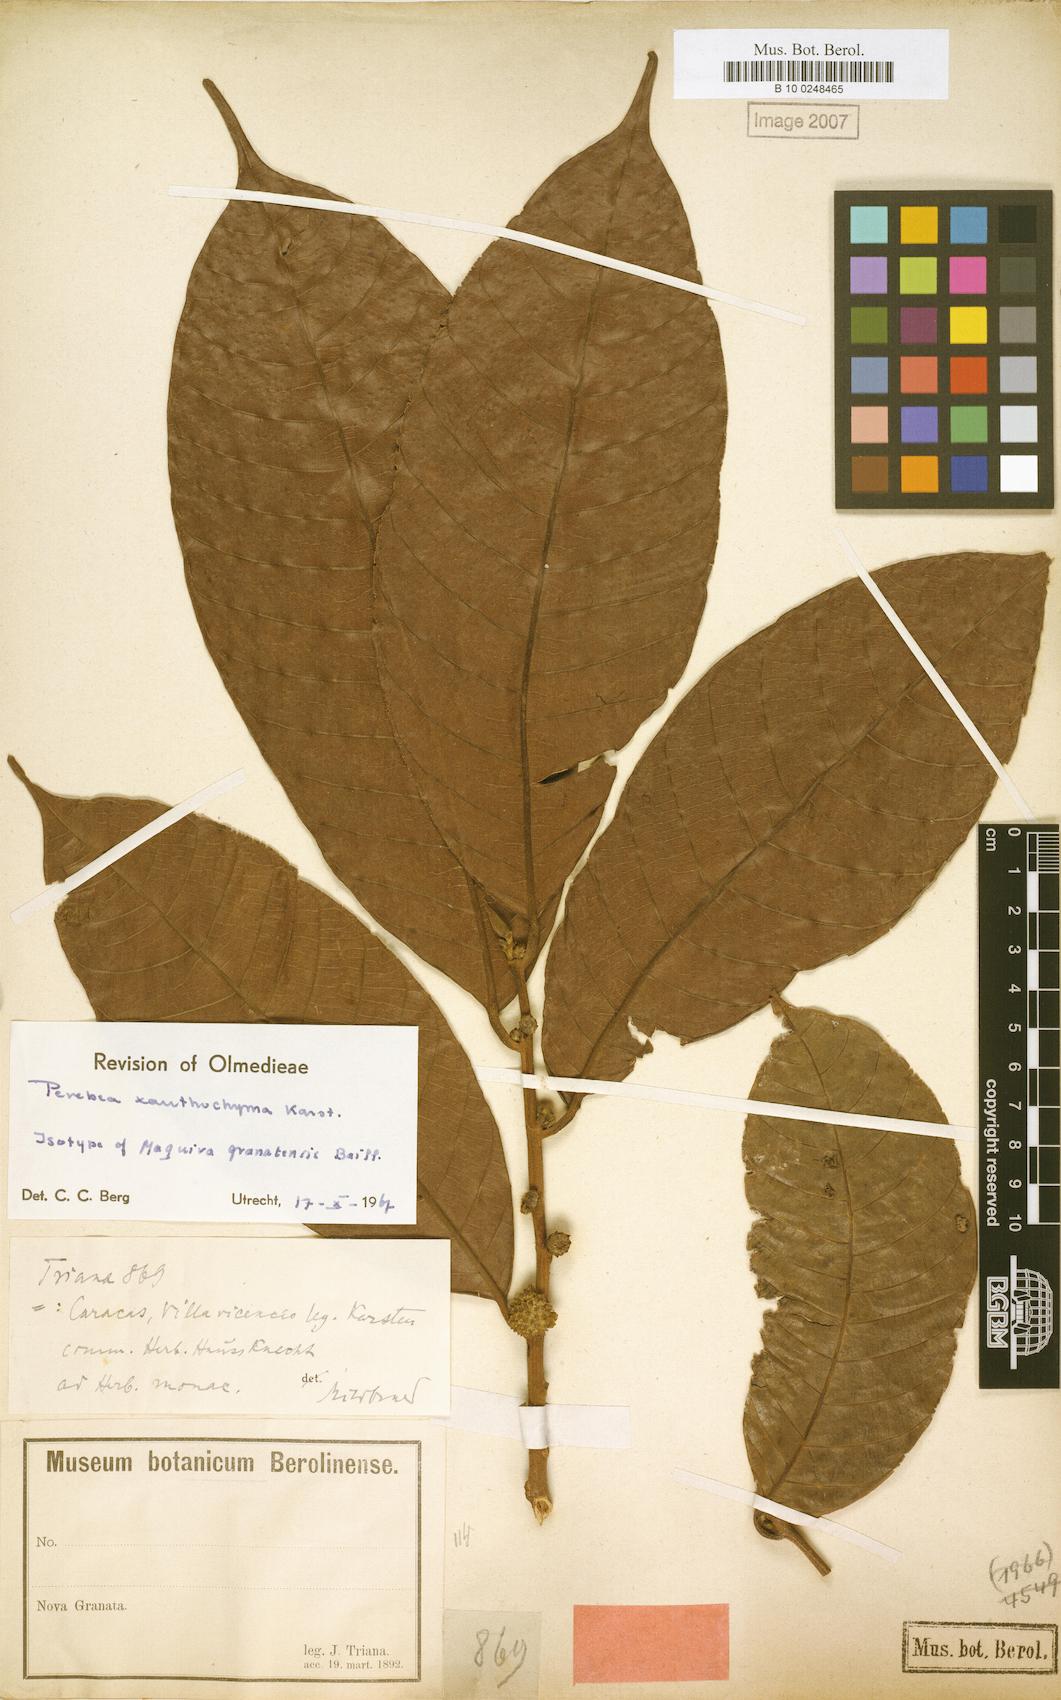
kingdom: Plantae
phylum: Tracheophyta
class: Magnoliopsida
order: Rosales
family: Moraceae
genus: Perebea
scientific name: Perebea xanthochyma
